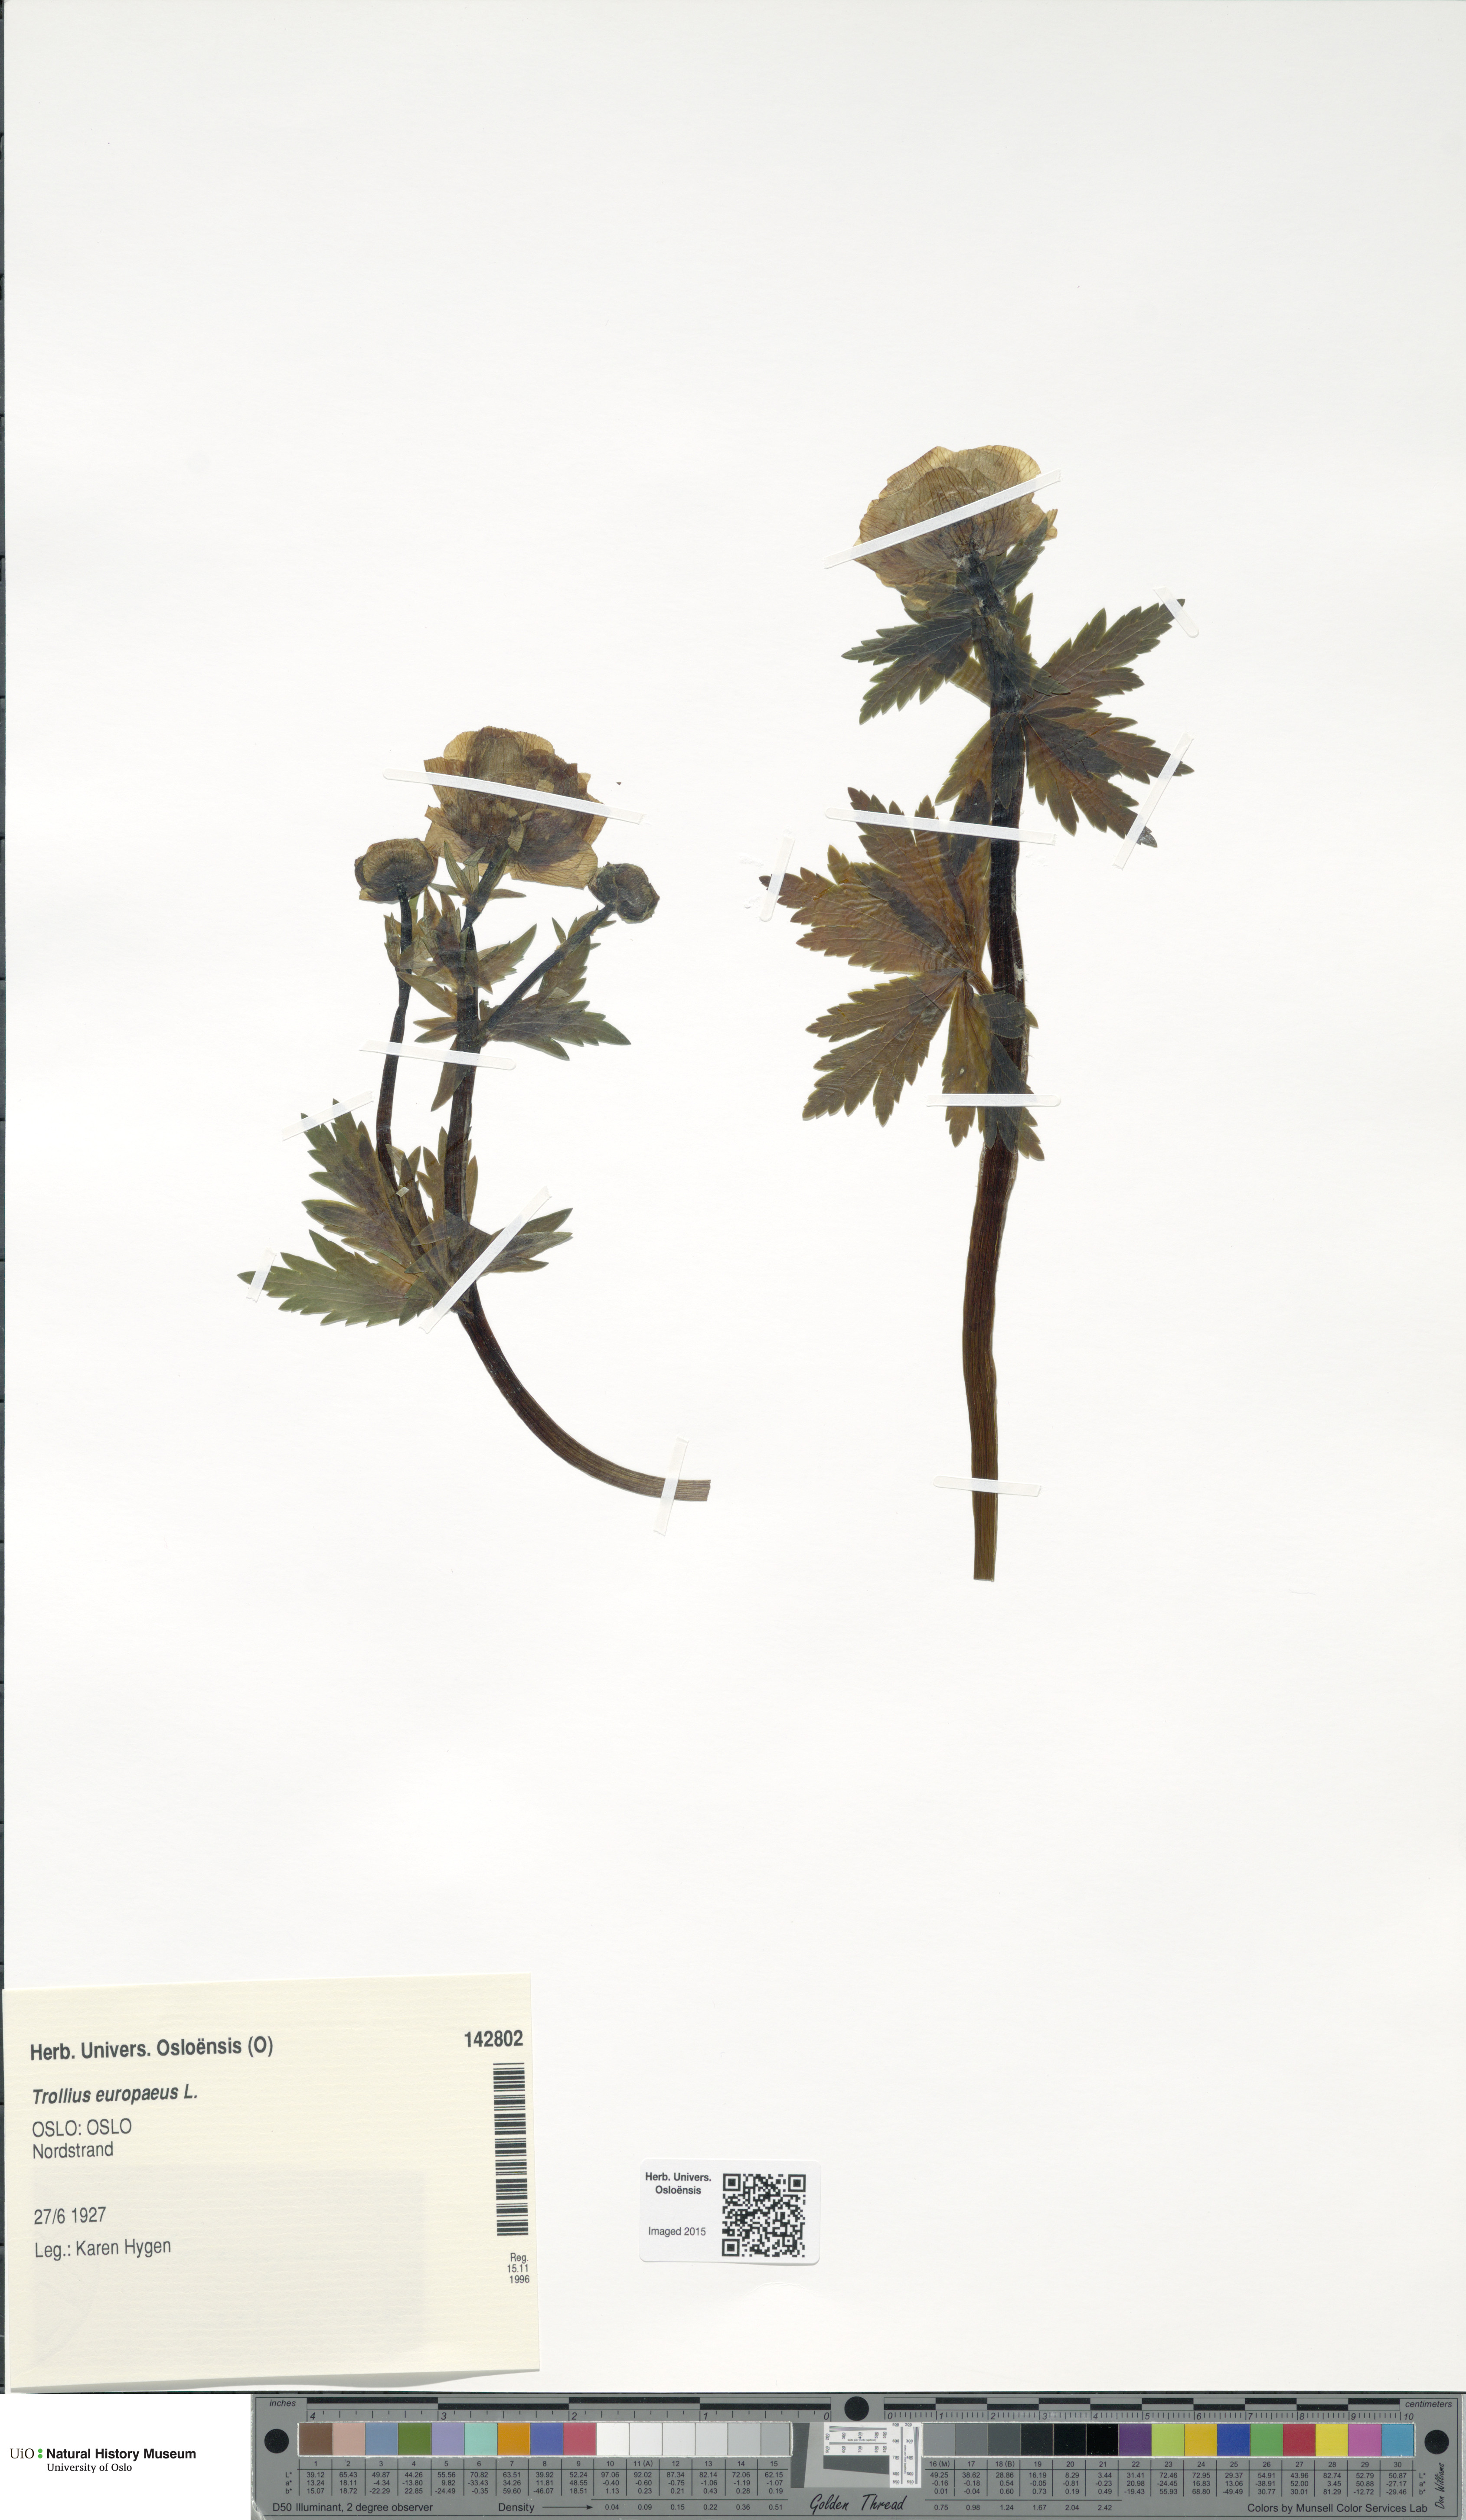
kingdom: Plantae
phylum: Tracheophyta
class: Magnoliopsida
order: Ranunculales
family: Ranunculaceae
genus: Trollius
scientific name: Trollius europaeus
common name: European globeflower
